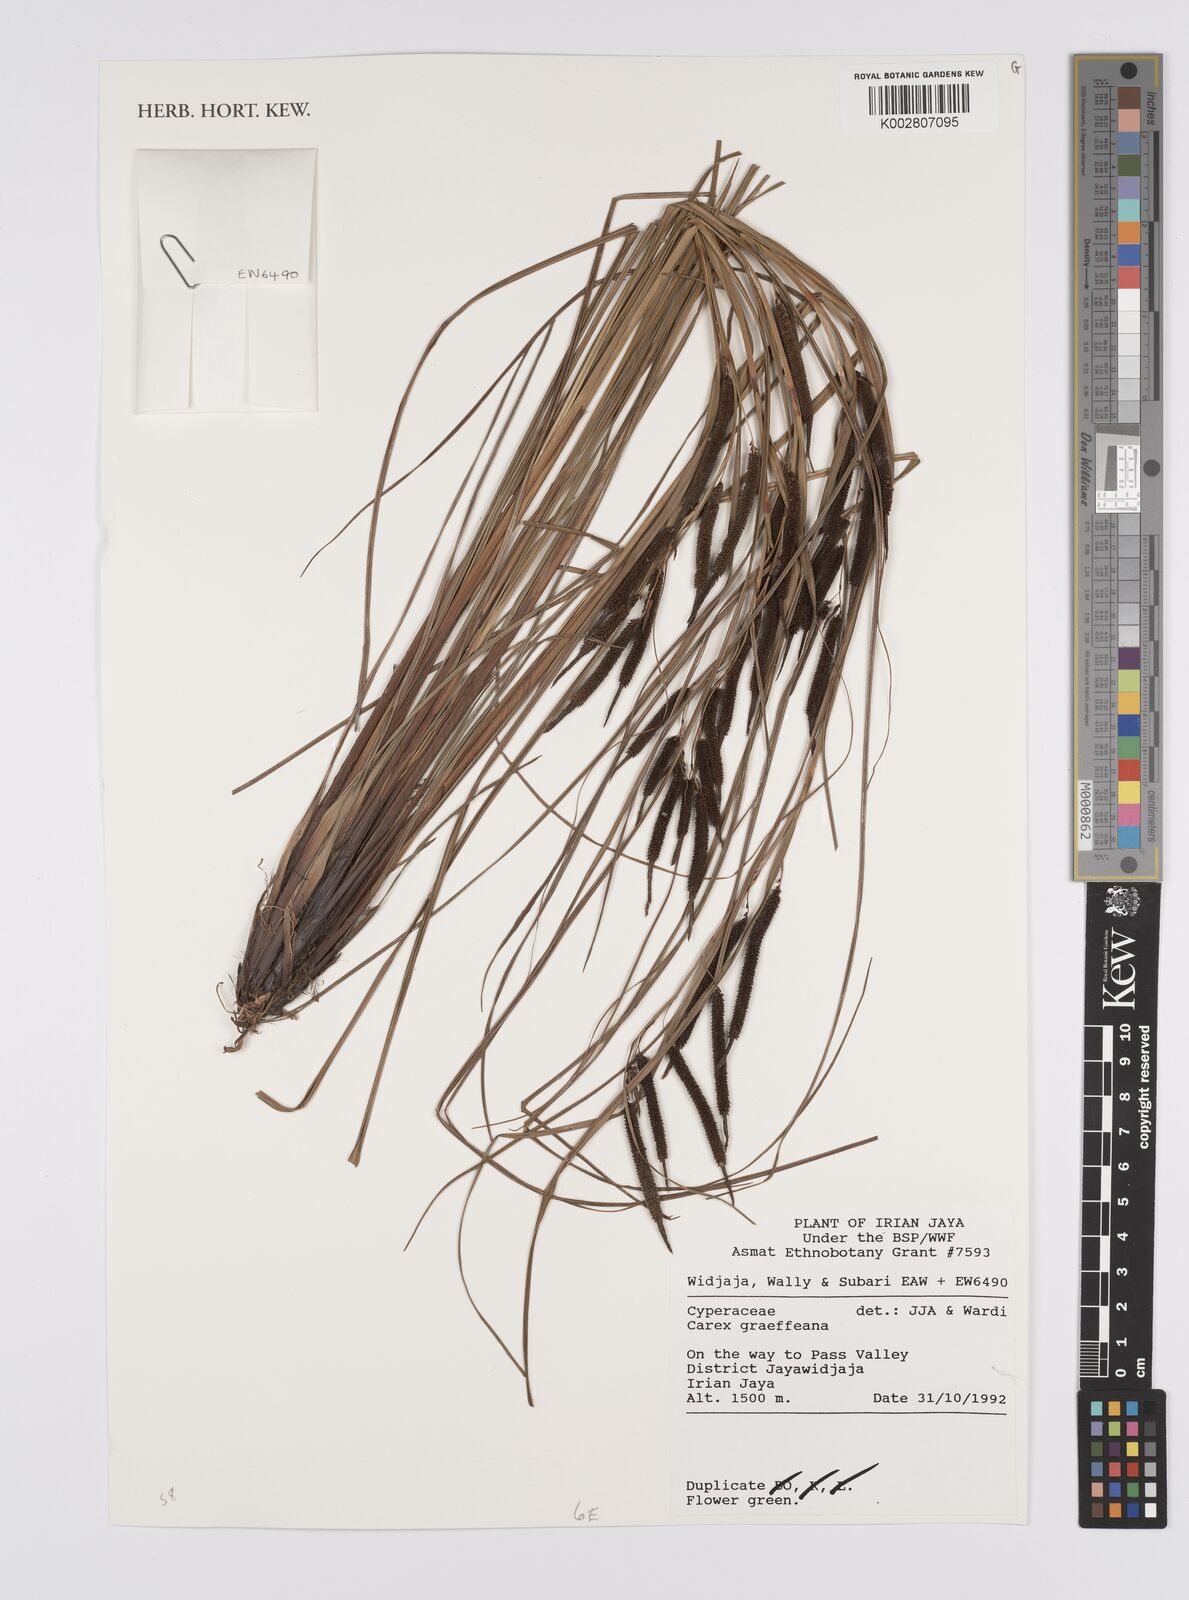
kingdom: Plantae
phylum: Tracheophyta
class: Liliopsida
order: Poales
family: Cyperaceae
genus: Carex
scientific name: Carex graeffeana
